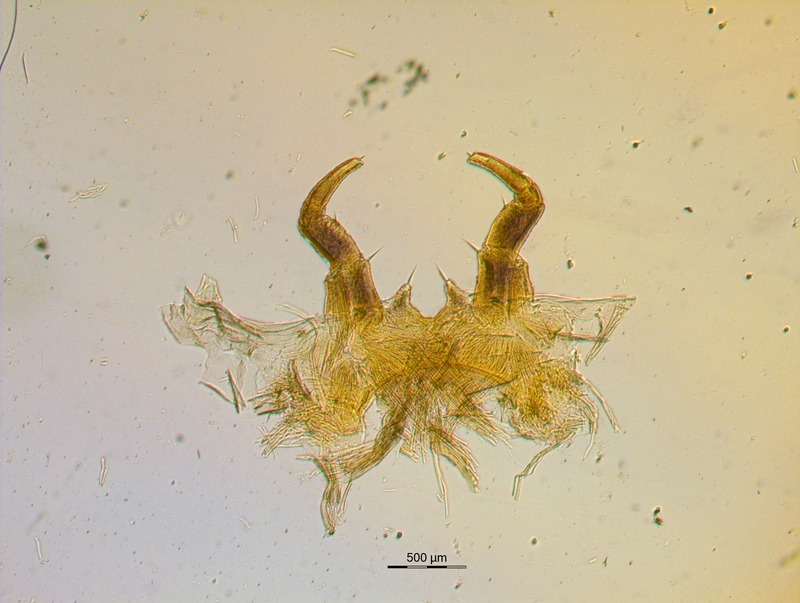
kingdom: Animalia
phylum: Arthropoda
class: Diplopoda
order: Glomerida
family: Glomeridae
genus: Onychoglomeris
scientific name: Onychoglomeris castanea
